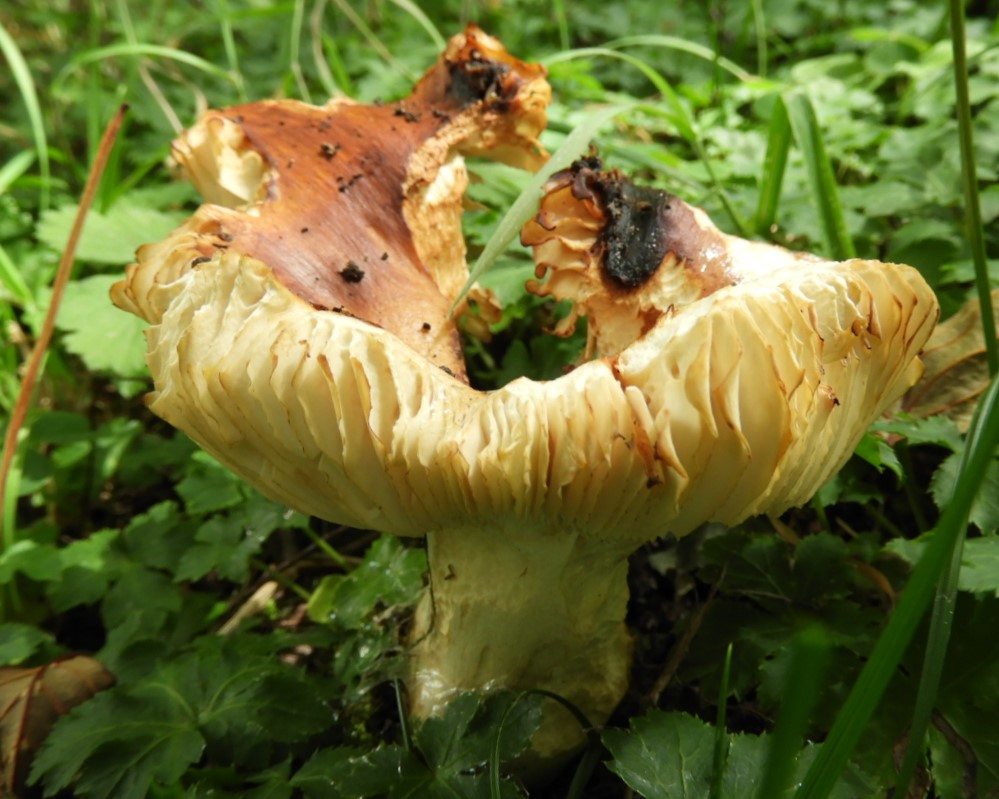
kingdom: Fungi
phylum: Basidiomycota
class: Agaricomycetes
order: Russulales
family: Russulaceae
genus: Russula
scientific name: Russula foetens
